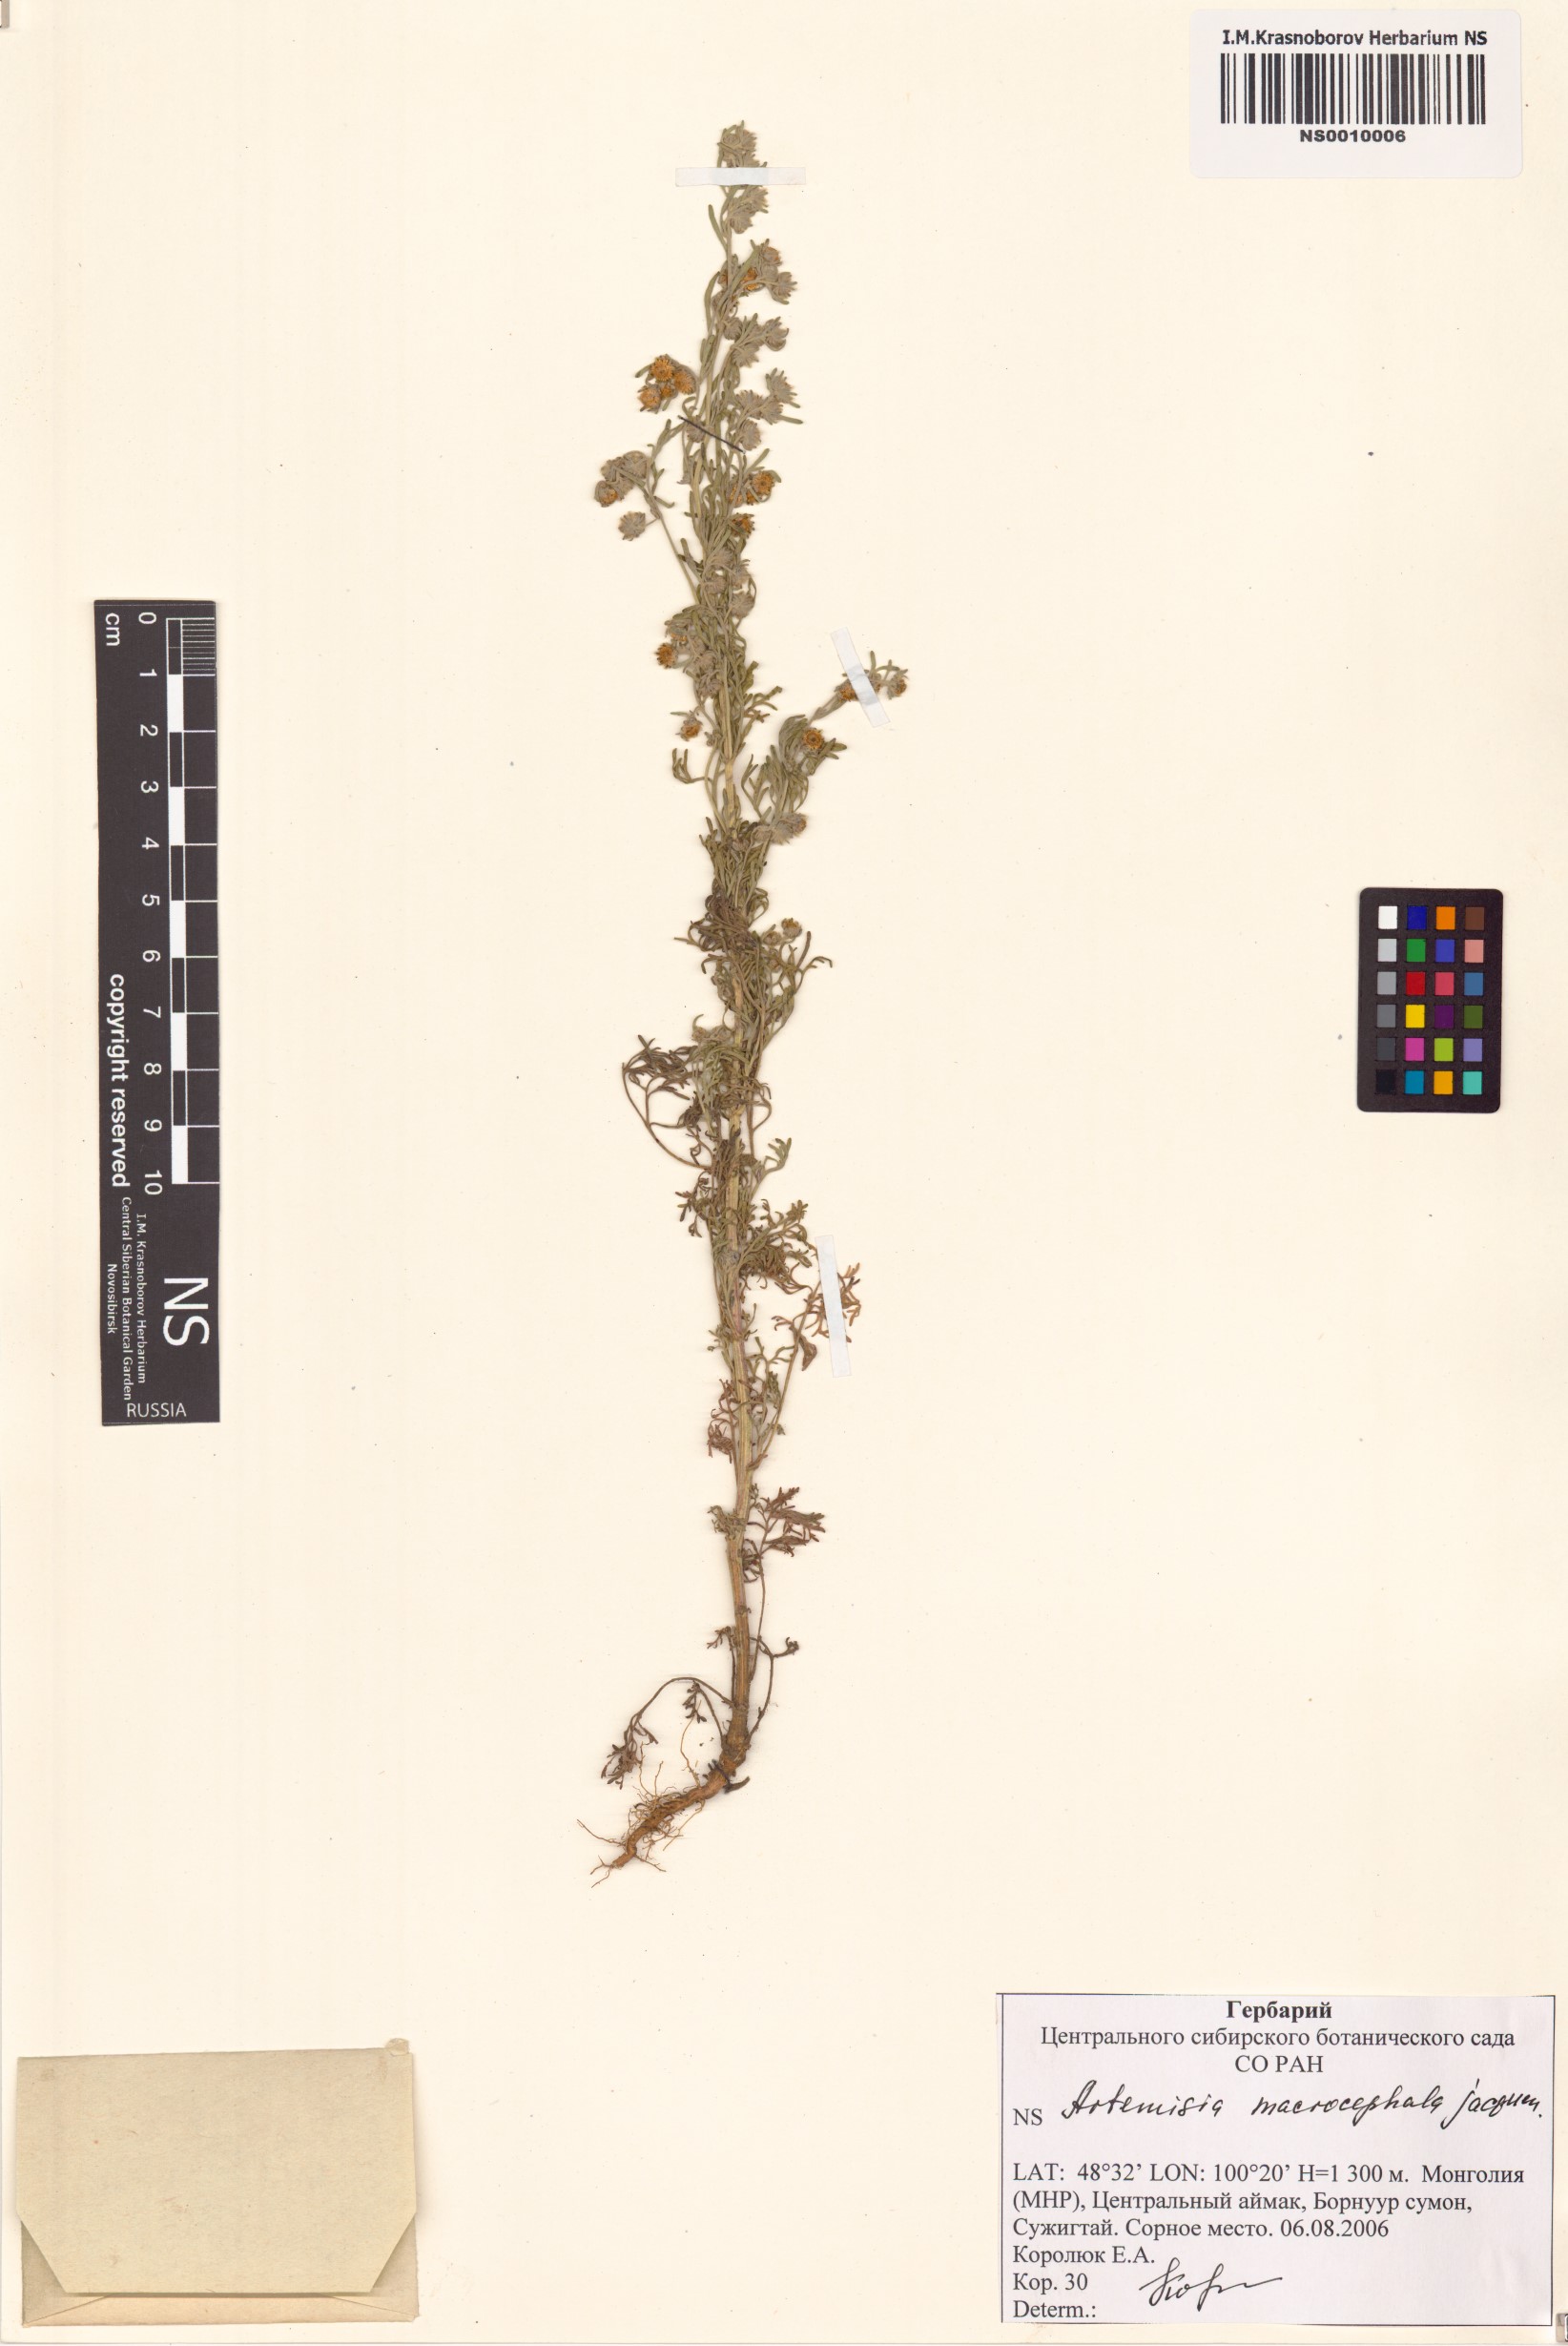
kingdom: Plantae
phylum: Tracheophyta
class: Magnoliopsida
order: Asterales
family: Asteraceae
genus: Artemisia
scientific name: Artemisia macrocephala
